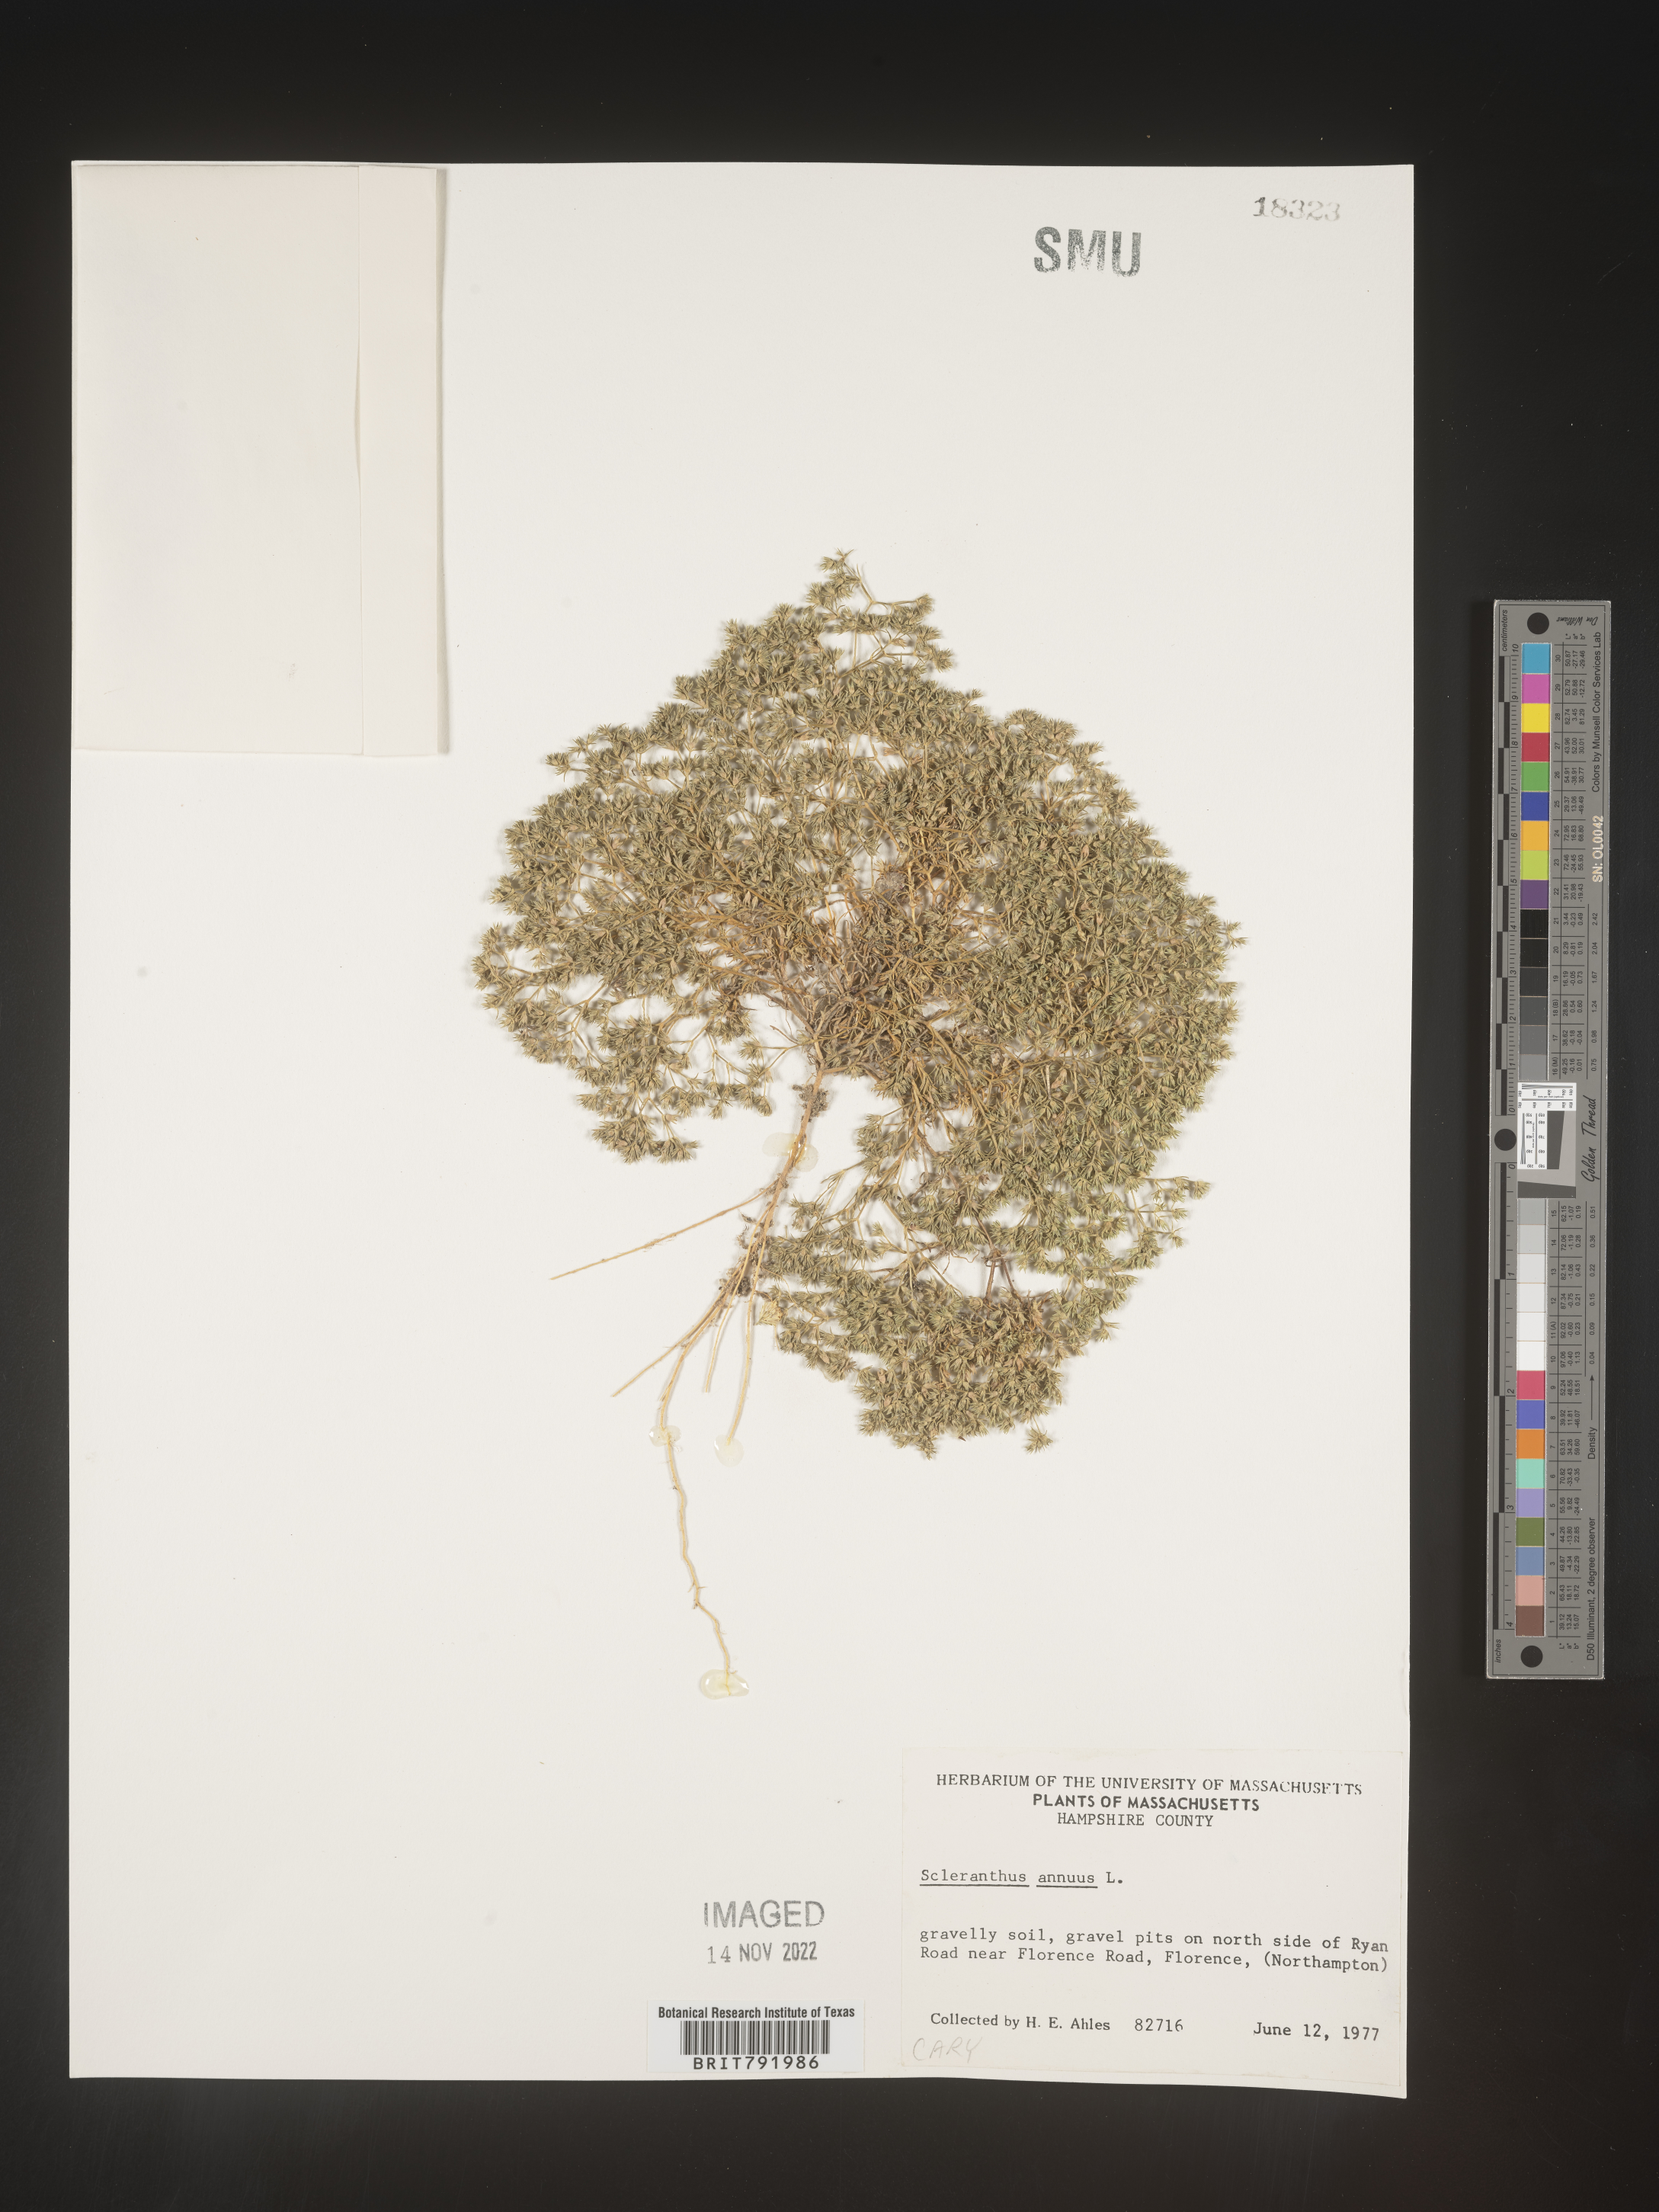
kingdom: Plantae
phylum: Tracheophyta
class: Magnoliopsida
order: Caryophyllales
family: Caryophyllaceae
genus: Scleranthus
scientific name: Scleranthus
